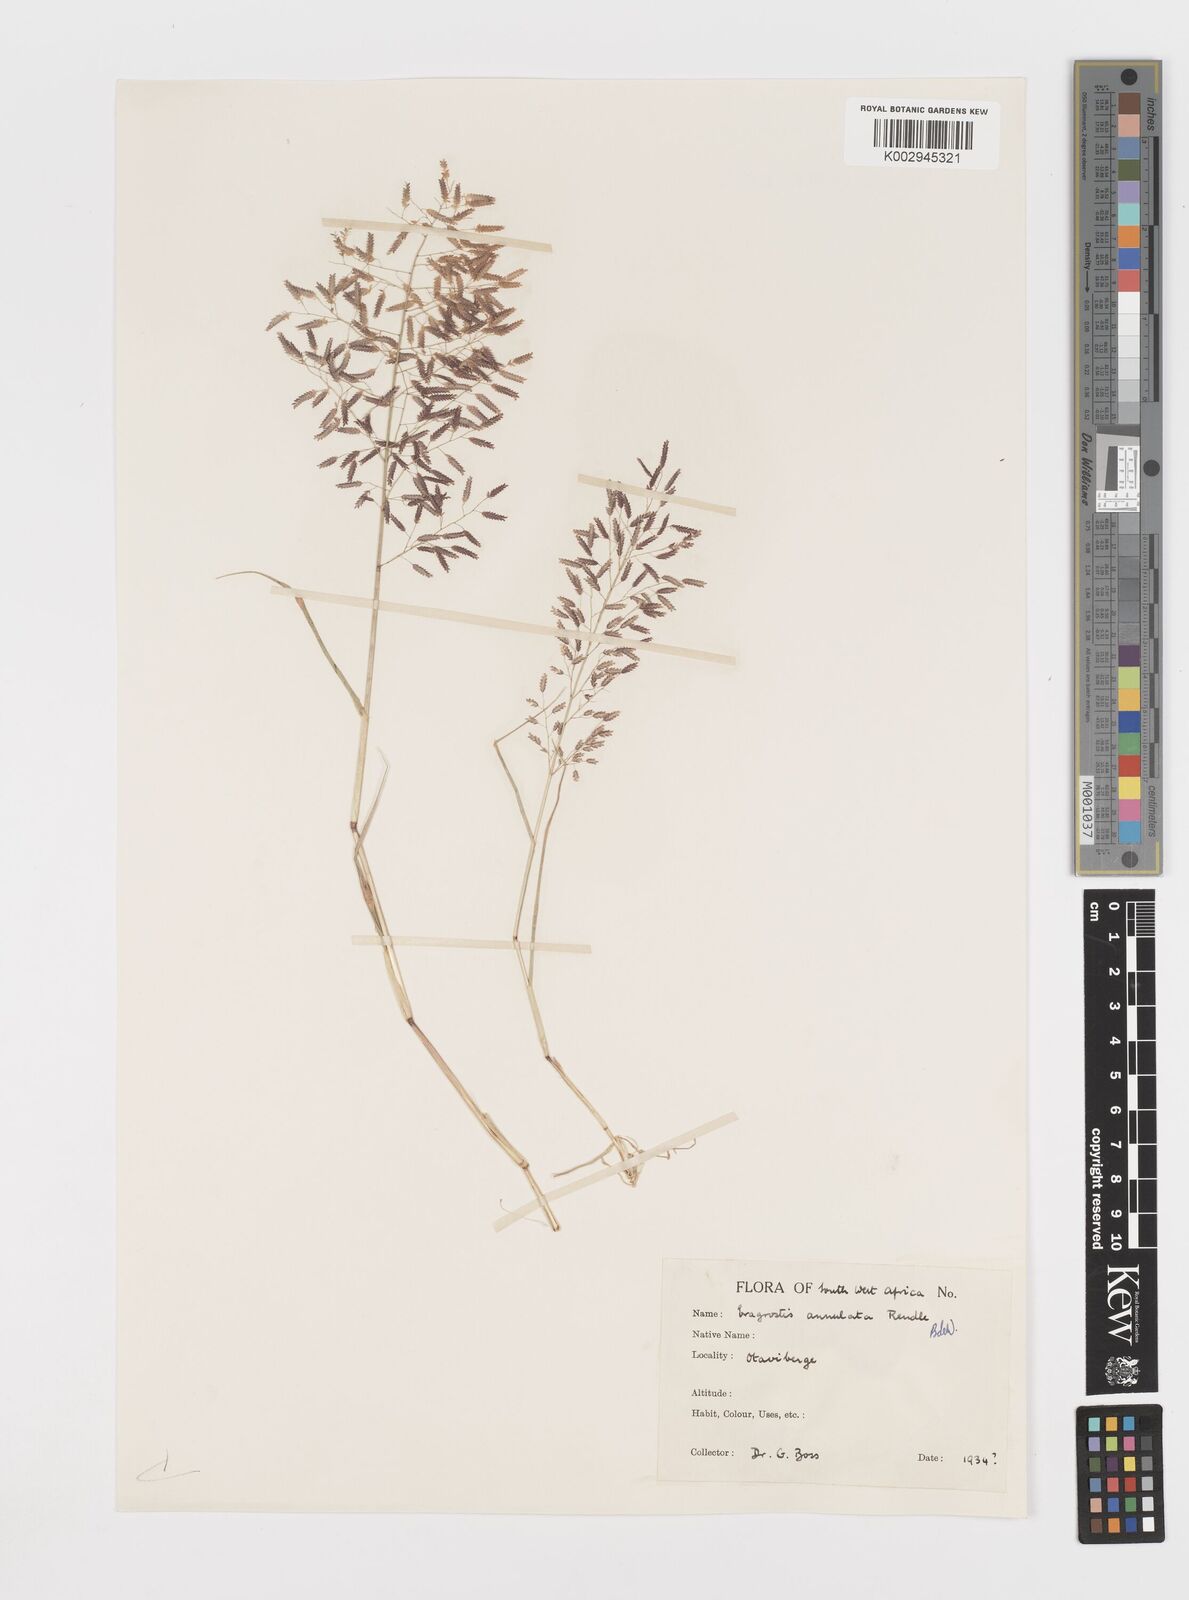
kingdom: Plantae
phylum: Tracheophyta
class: Liliopsida
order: Poales
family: Poaceae
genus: Eragrostis
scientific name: Eragrostis annulata
